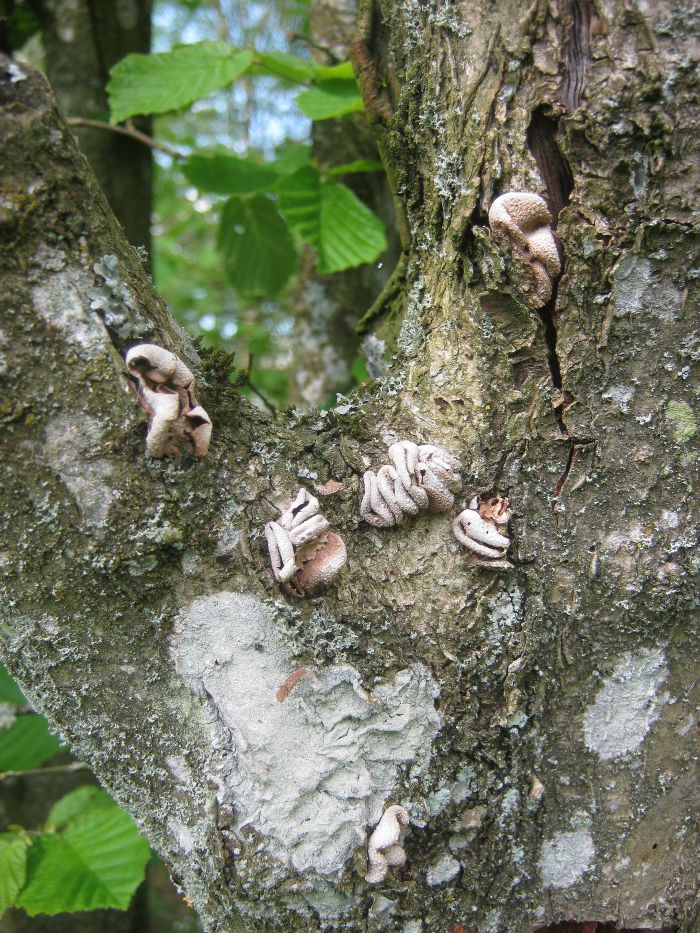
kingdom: Fungi
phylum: Ascomycota
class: Leotiomycetes
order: Helotiales
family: Cenangiaceae
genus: Encoelia
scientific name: Encoelia furfuracea
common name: hassel-læderskive
